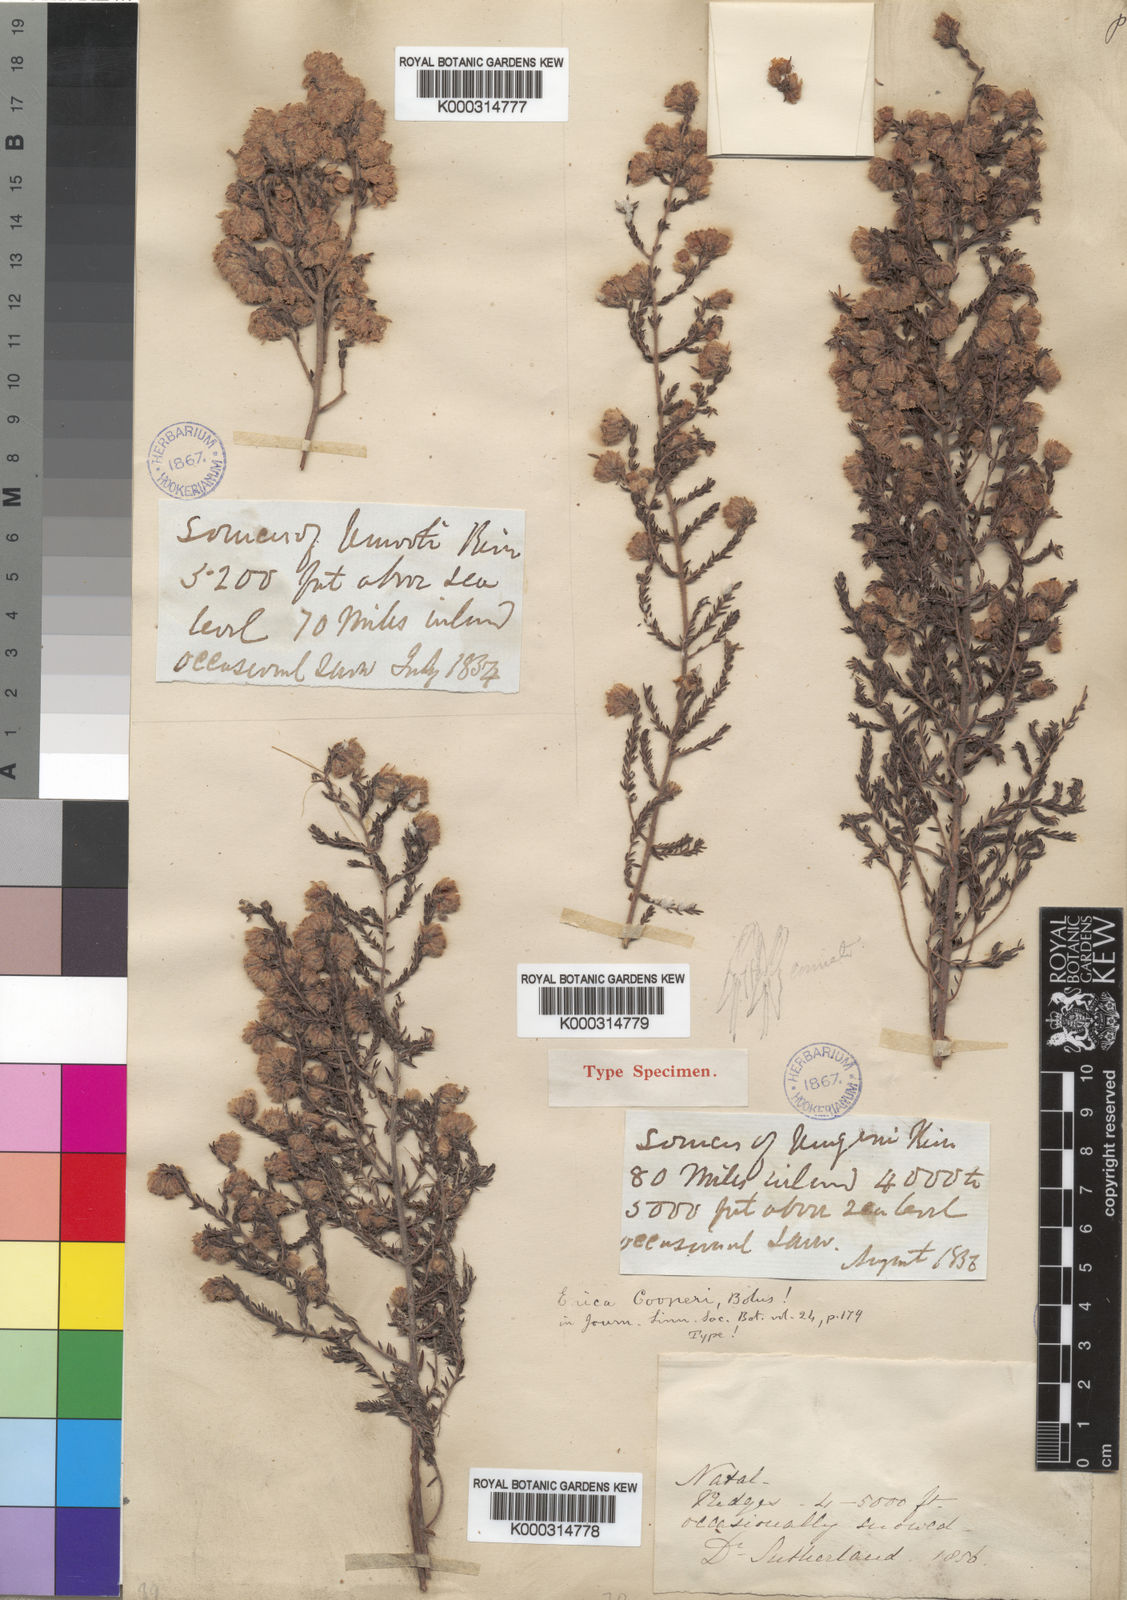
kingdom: Plantae
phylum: Tracheophyta
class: Magnoliopsida
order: Ericales
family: Ericaceae
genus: Erica
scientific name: Erica cooperi
